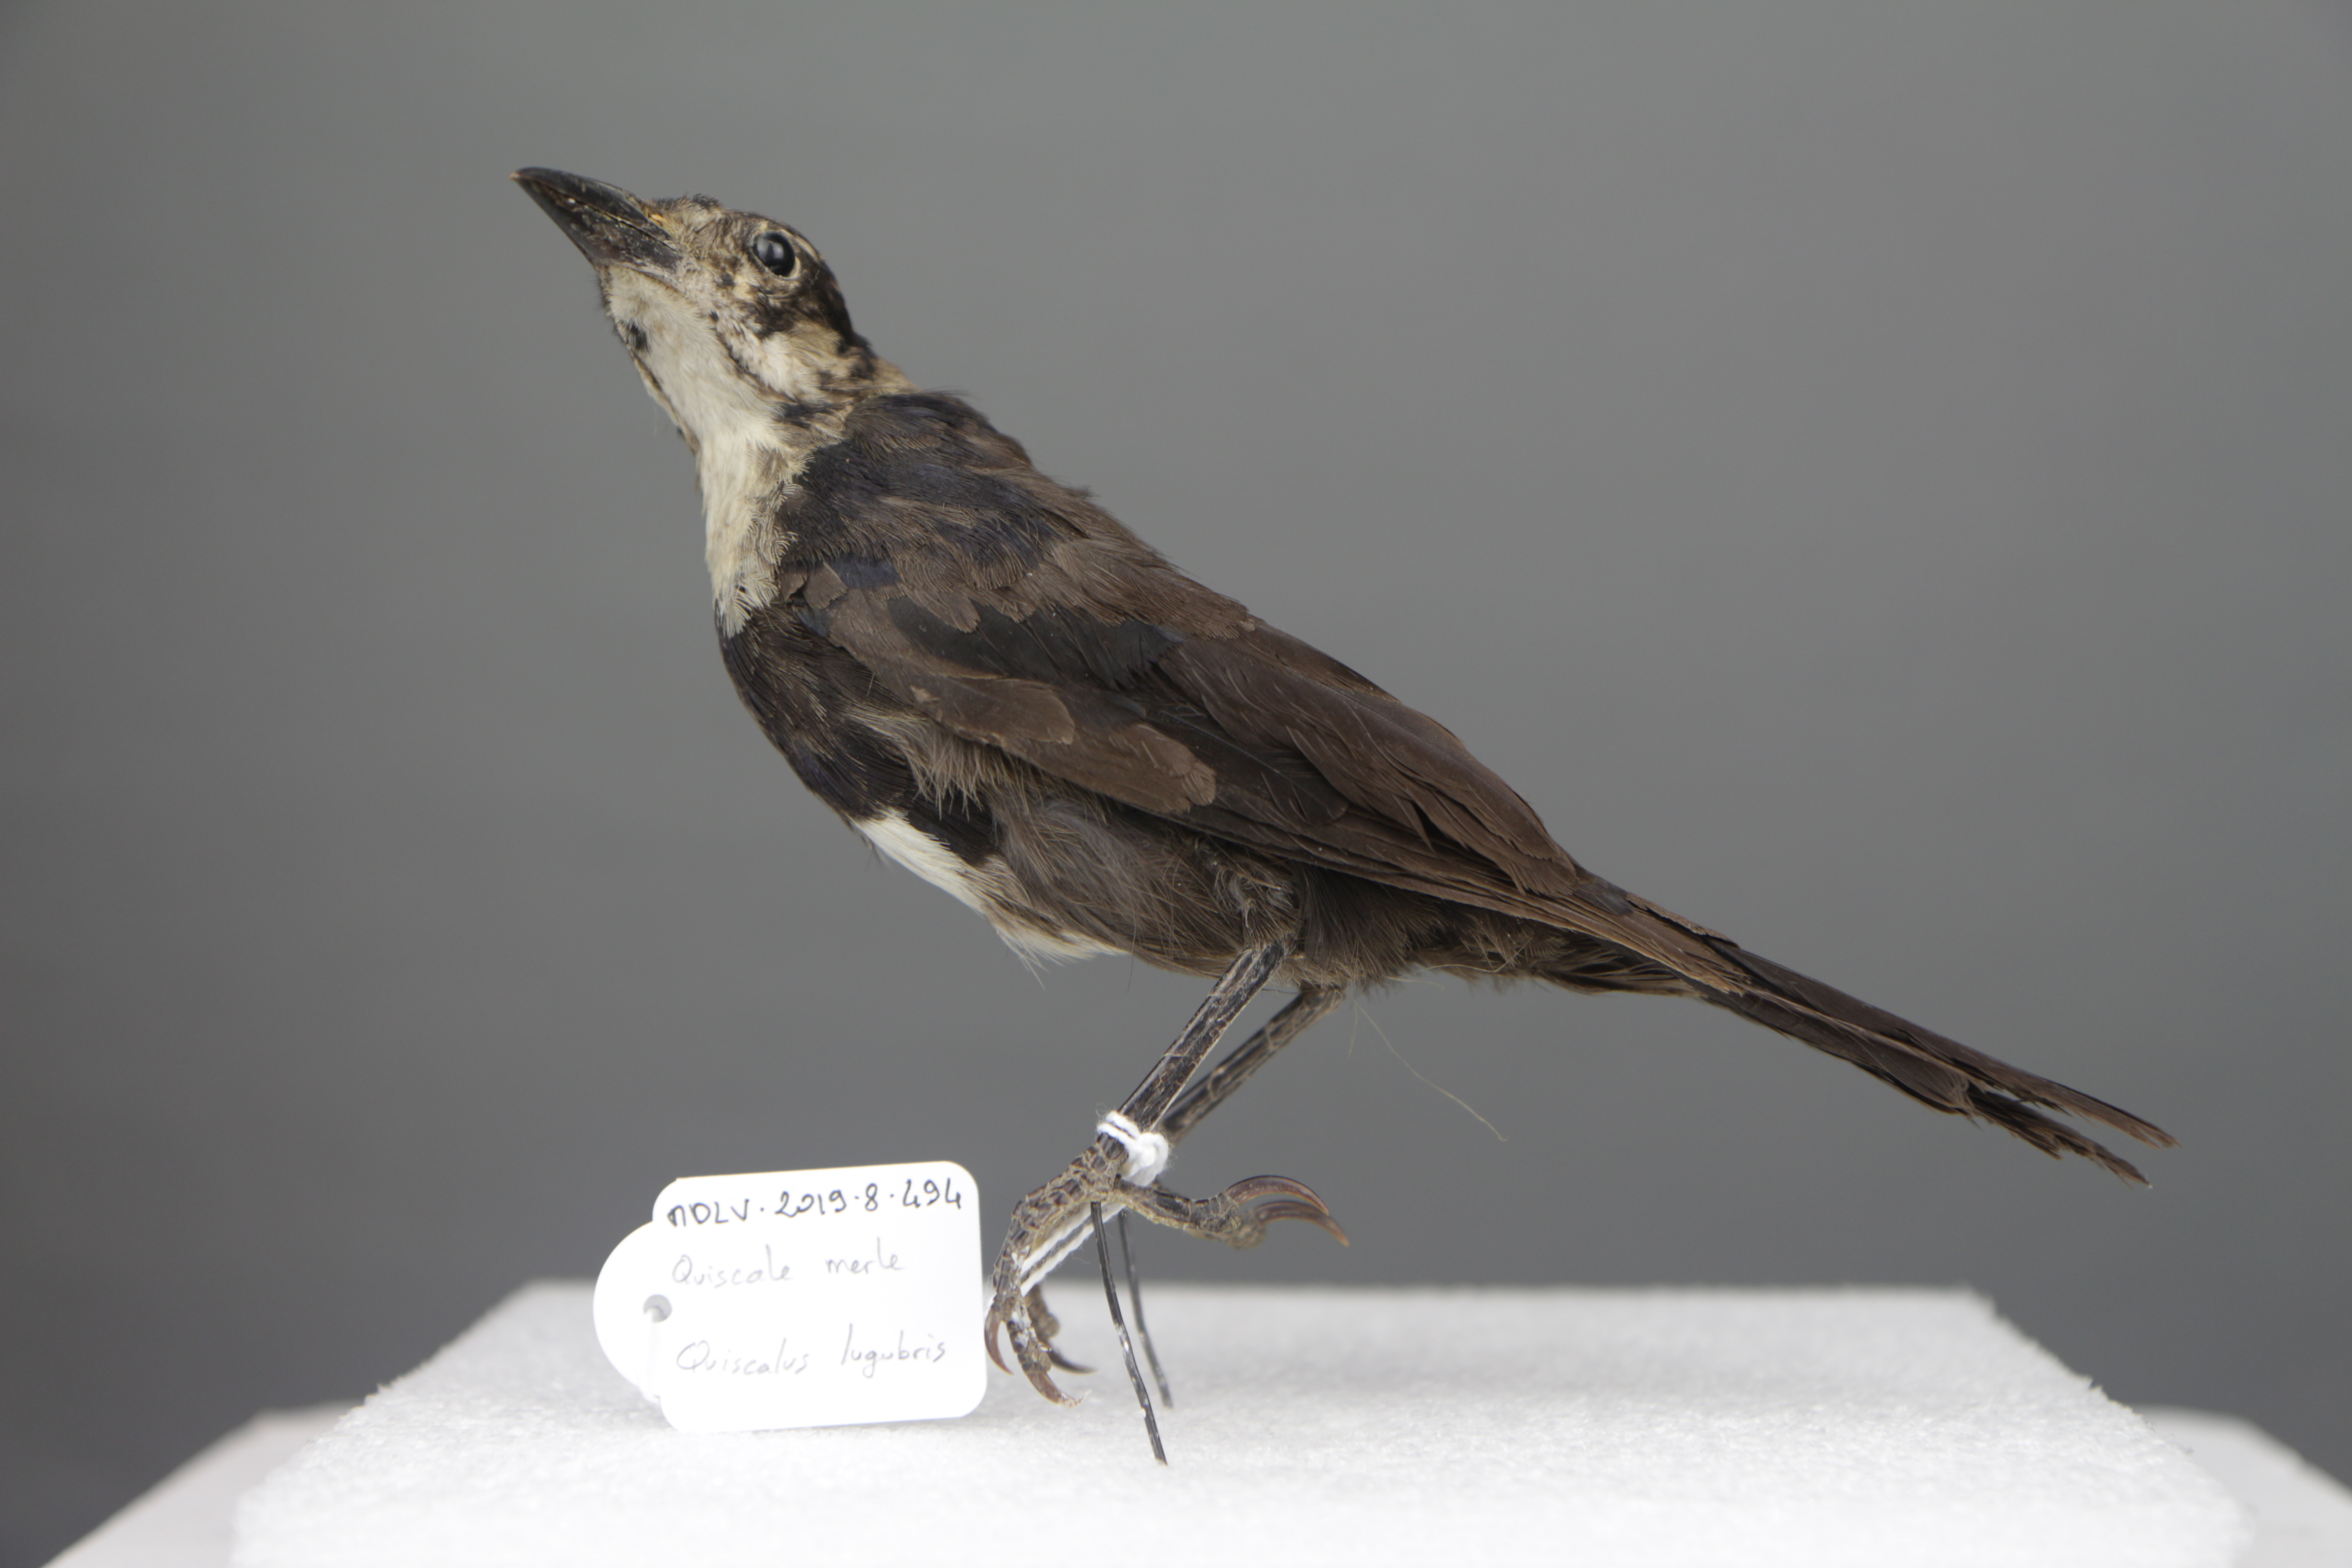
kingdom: Animalia
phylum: Chordata
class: Aves
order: Passeriformes
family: Icteridae
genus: Quiscalus
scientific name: Quiscalus lugubris
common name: Carib grackle
